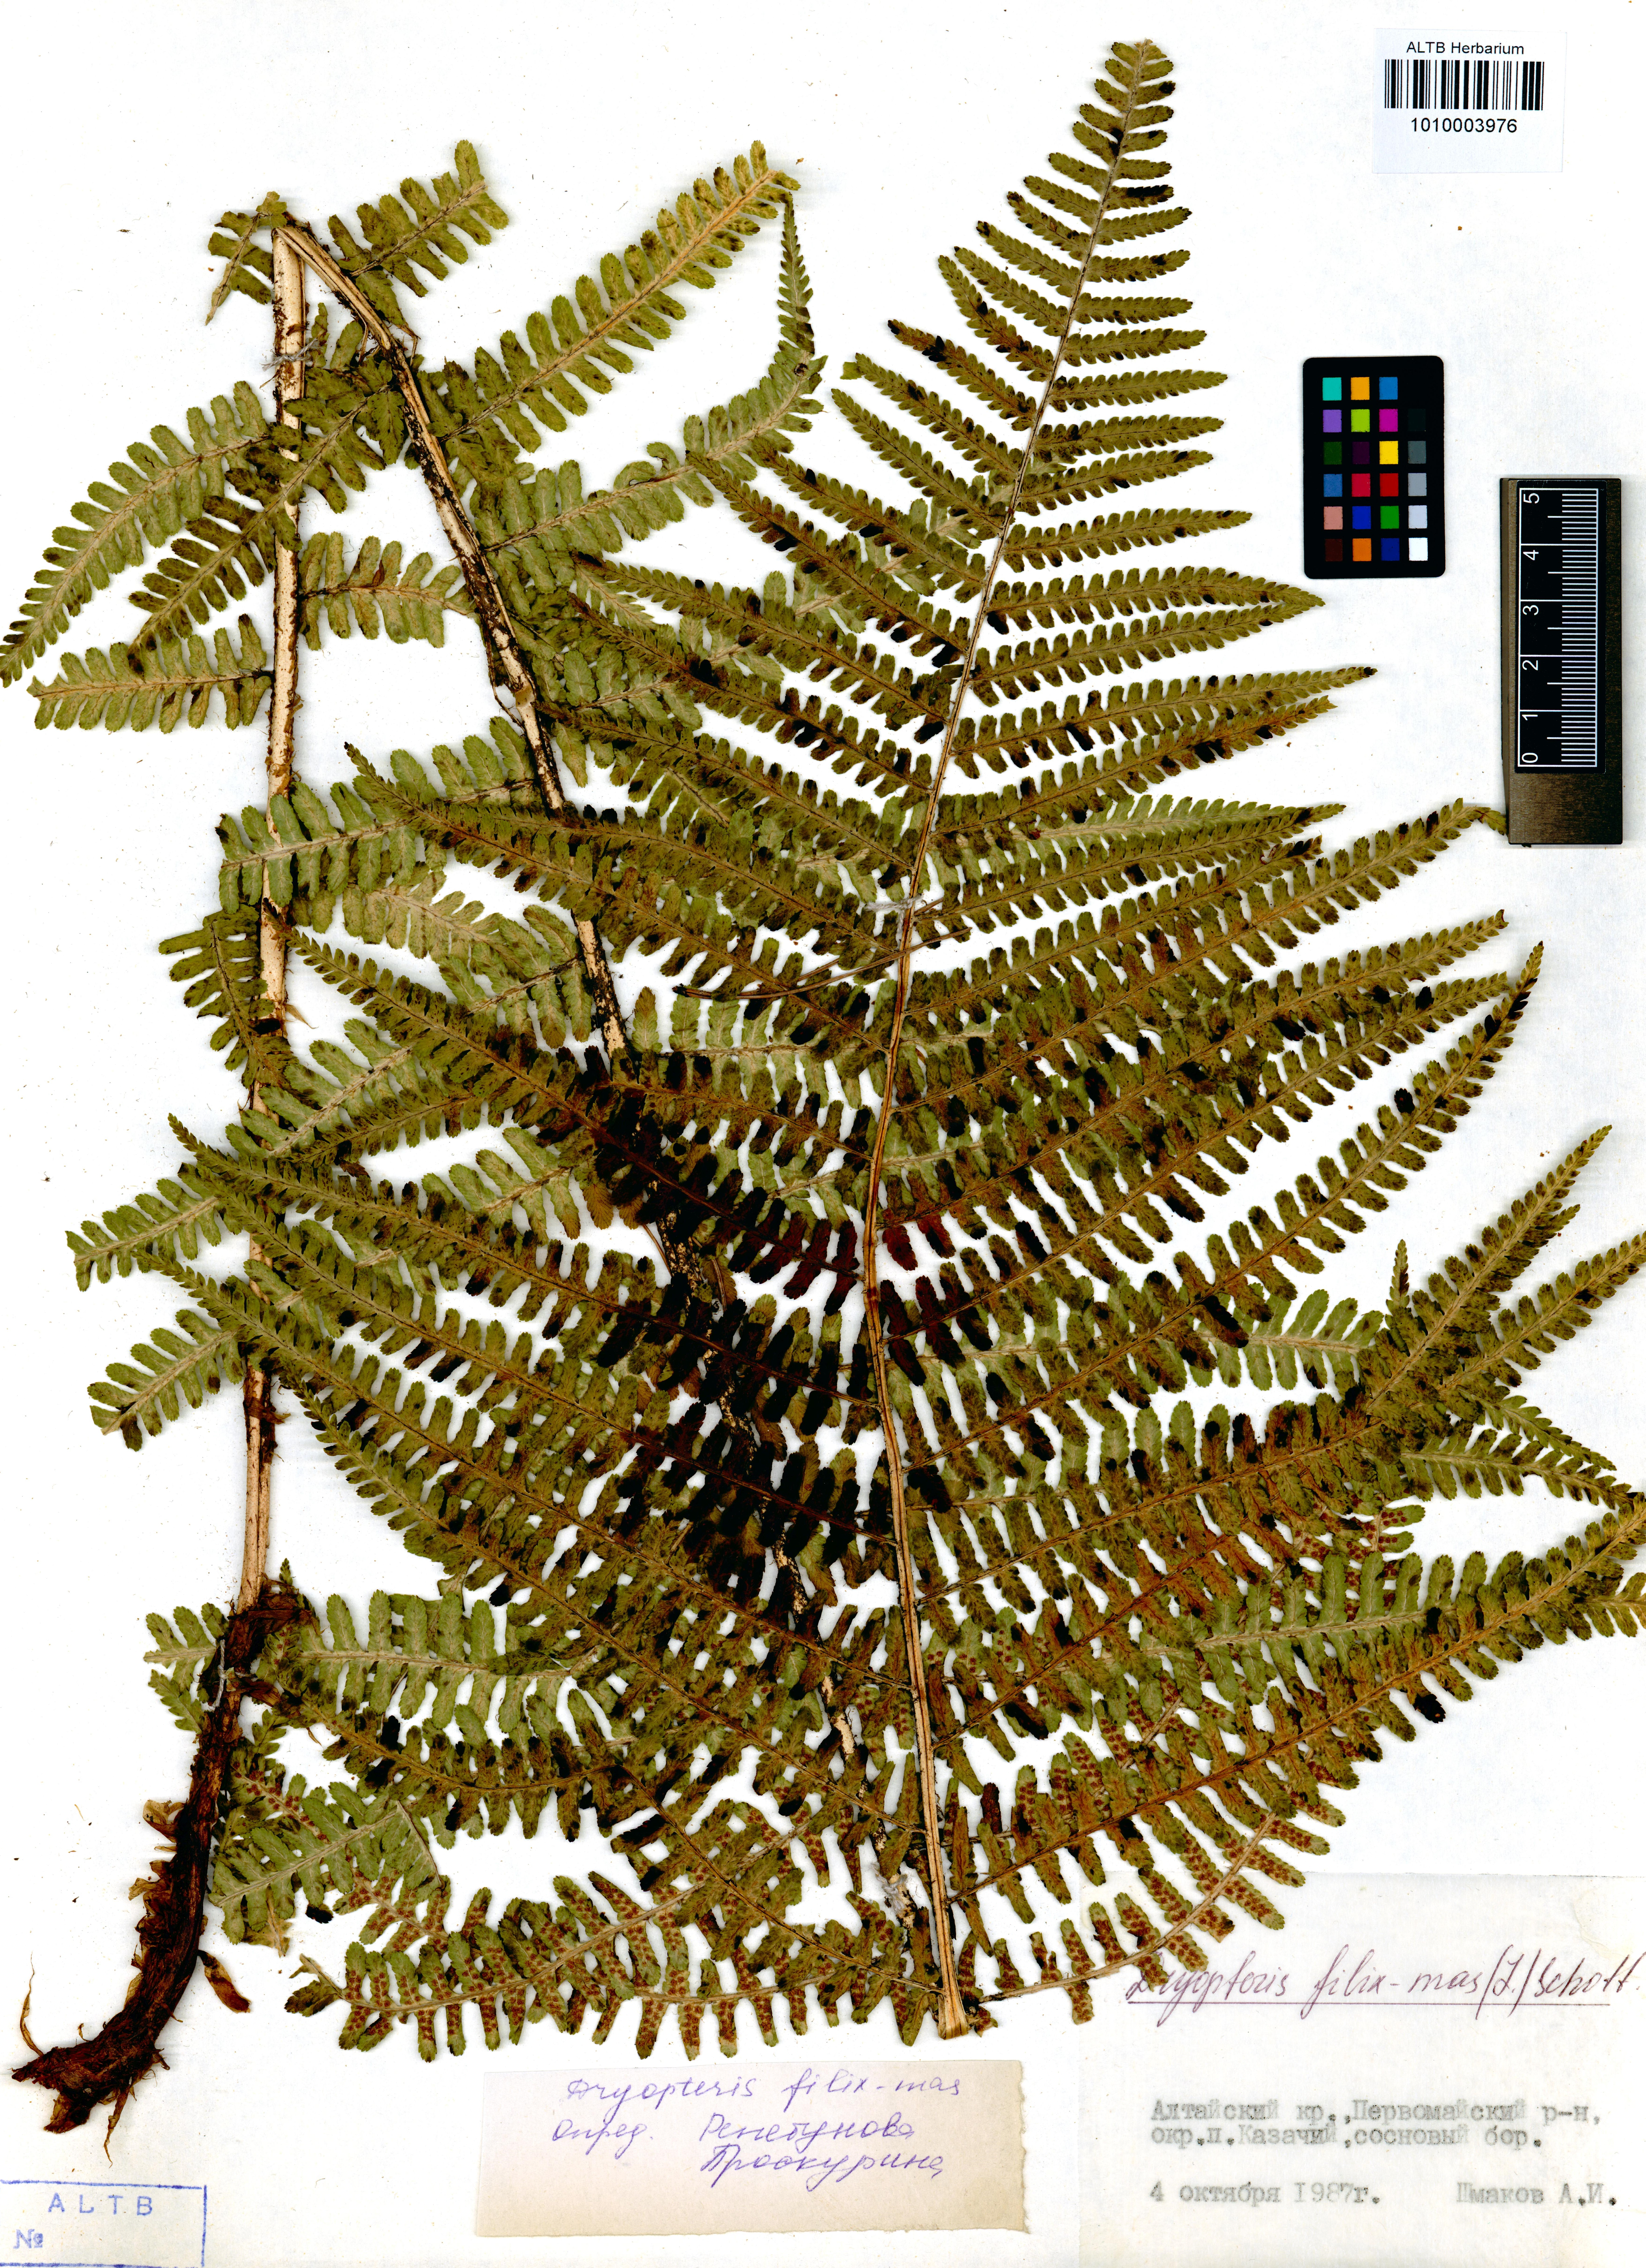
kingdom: Plantae
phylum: Tracheophyta
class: Polypodiopsida
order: Polypodiales
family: Dryopteridaceae
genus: Dryopteris
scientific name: Dryopteris filix-mas
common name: Male fern
